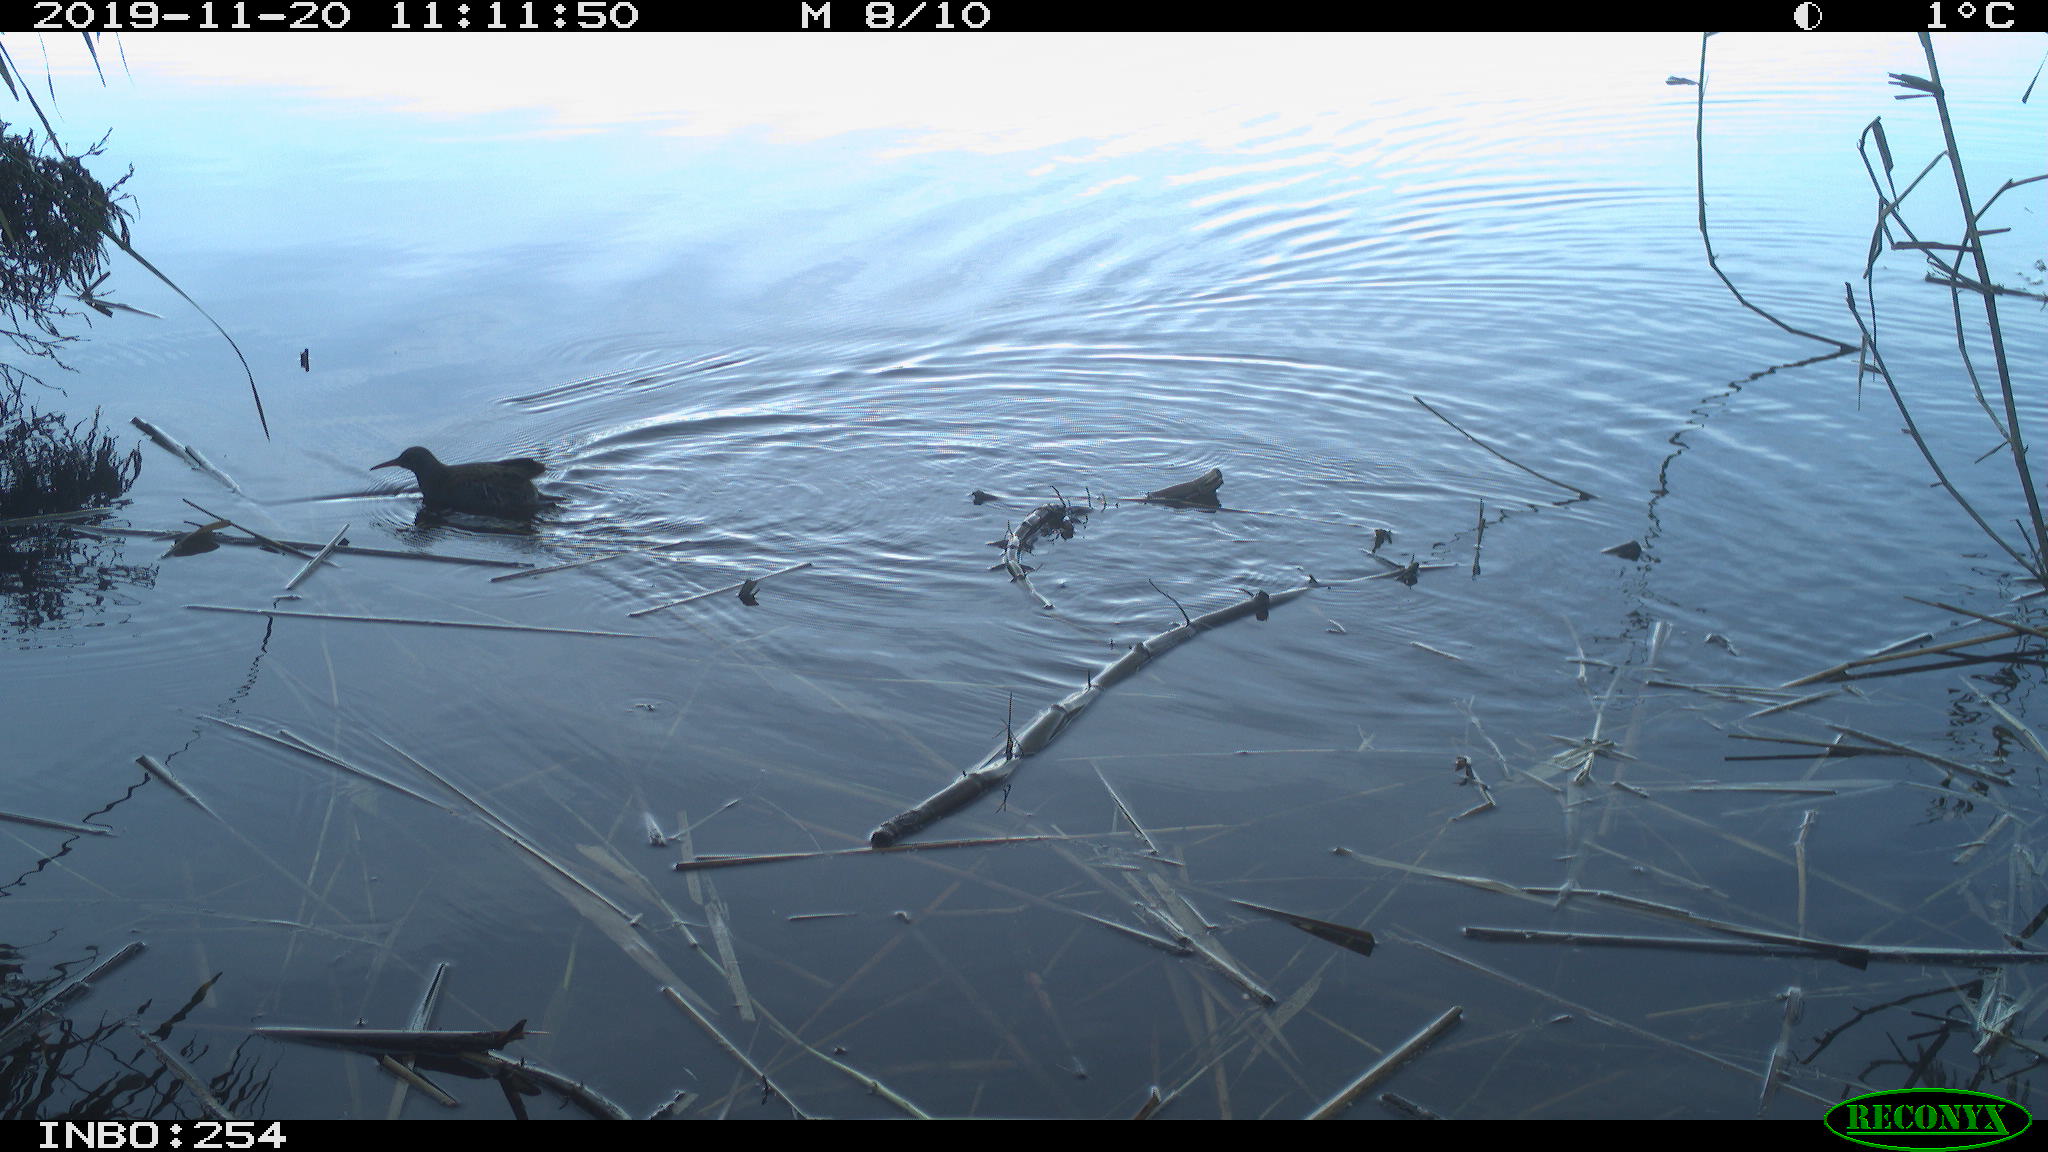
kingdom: Animalia
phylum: Chordata
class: Aves
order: Gruiformes
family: Rallidae
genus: Gallinula
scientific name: Gallinula chloropus
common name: Common moorhen
